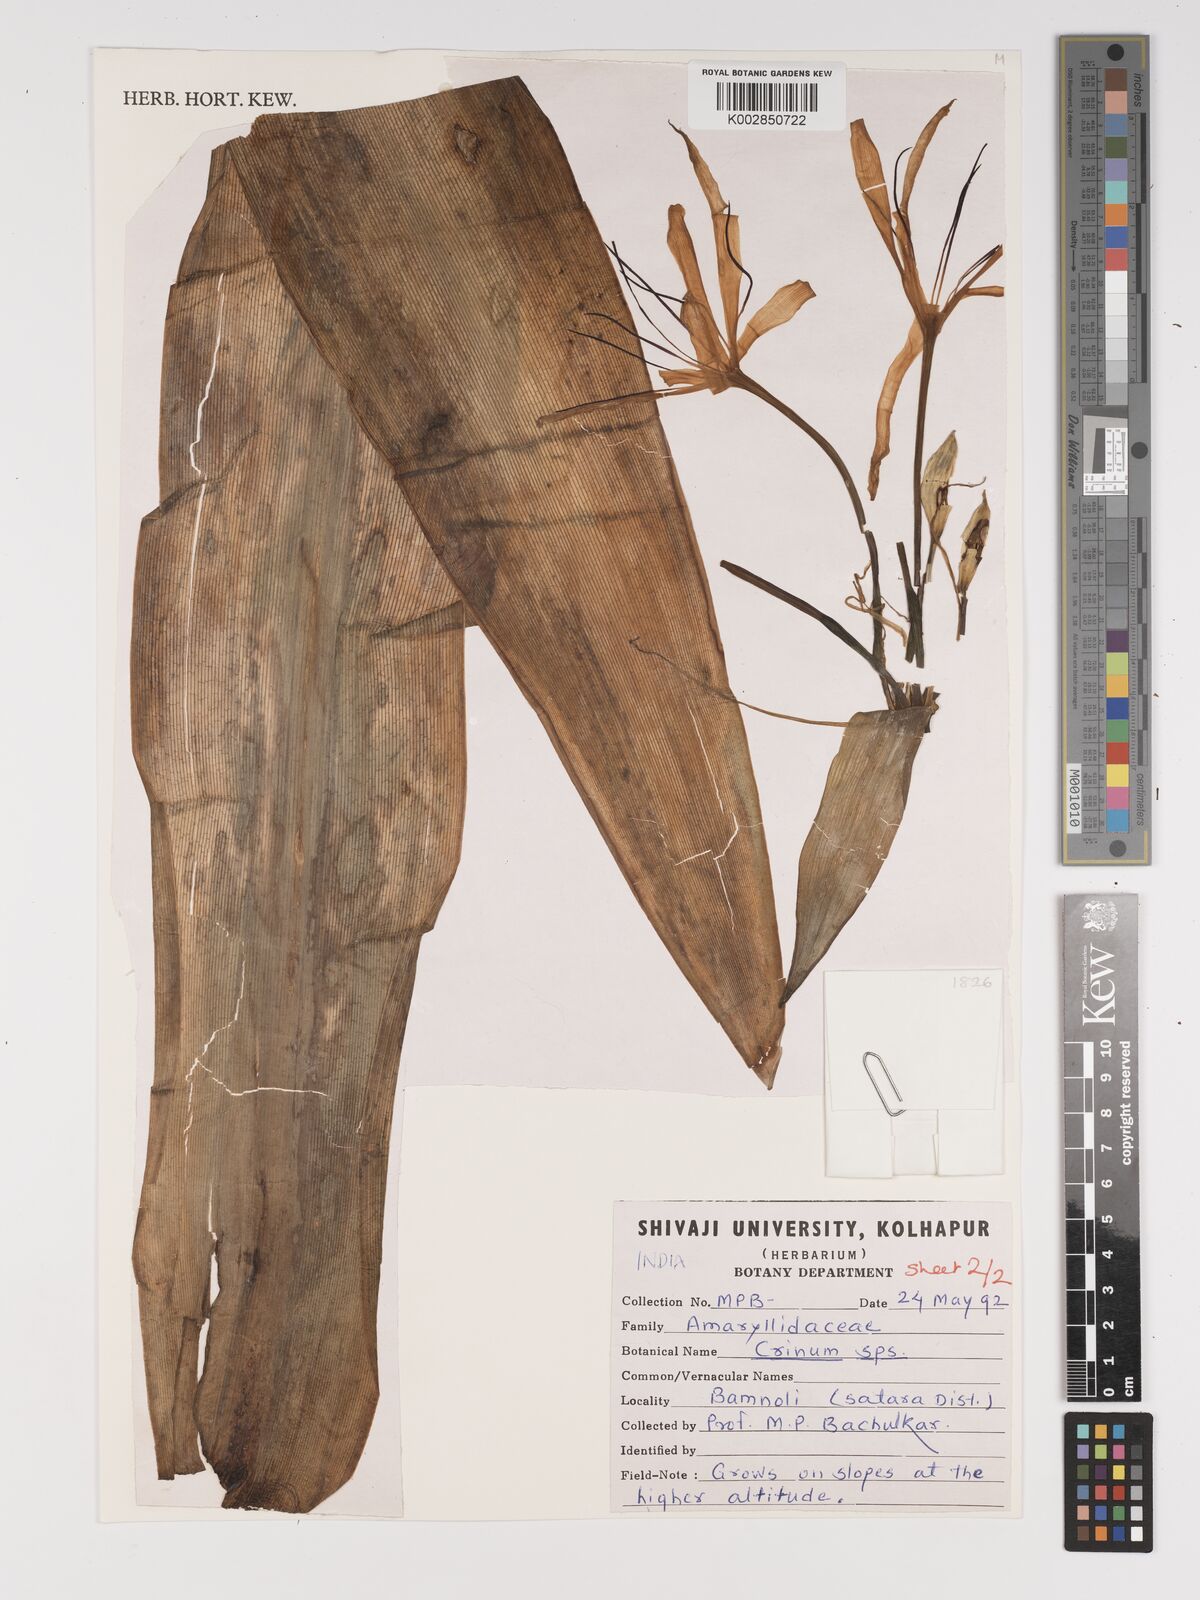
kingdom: Plantae
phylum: Tracheophyta
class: Liliopsida
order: Asparagales
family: Amaryllidaceae
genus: Crinum
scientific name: Crinum
